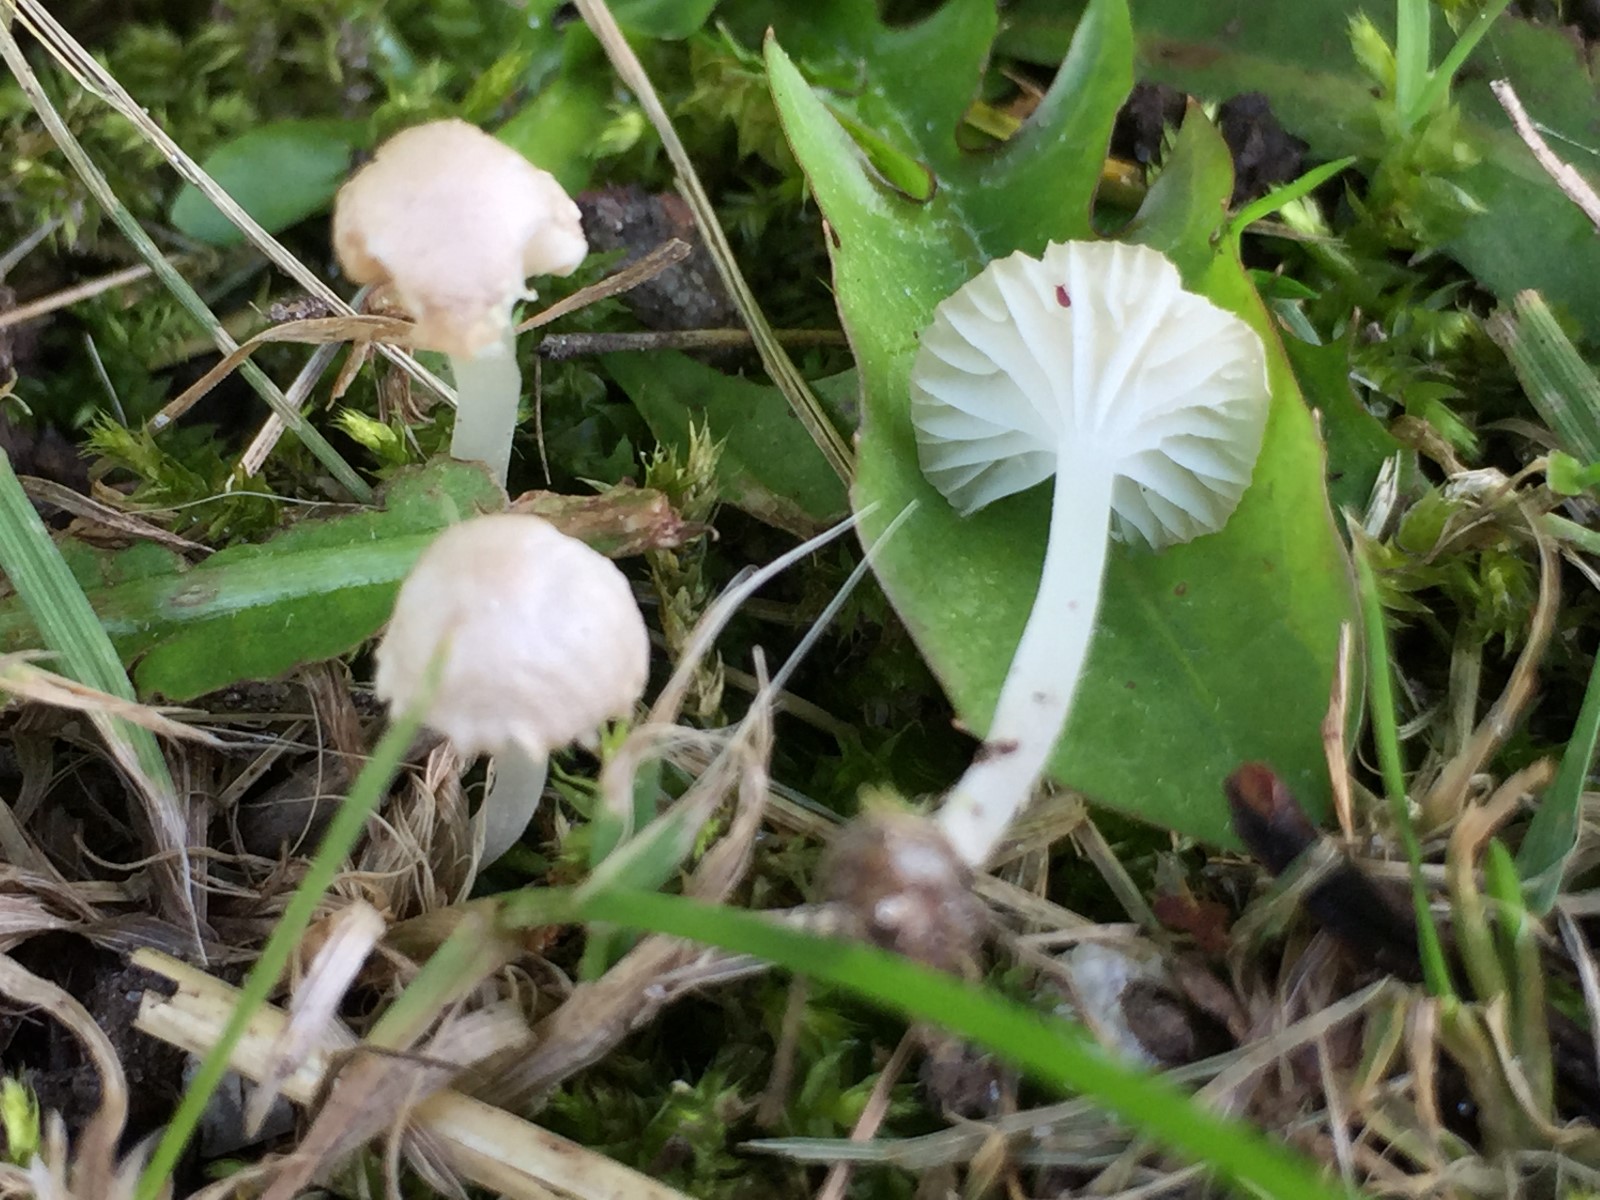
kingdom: Fungi
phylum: Basidiomycota
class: Agaricomycetes
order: Agaricales
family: Mycenaceae
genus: Hemimycena
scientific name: Hemimycena mairei
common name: voks-huesvamp
